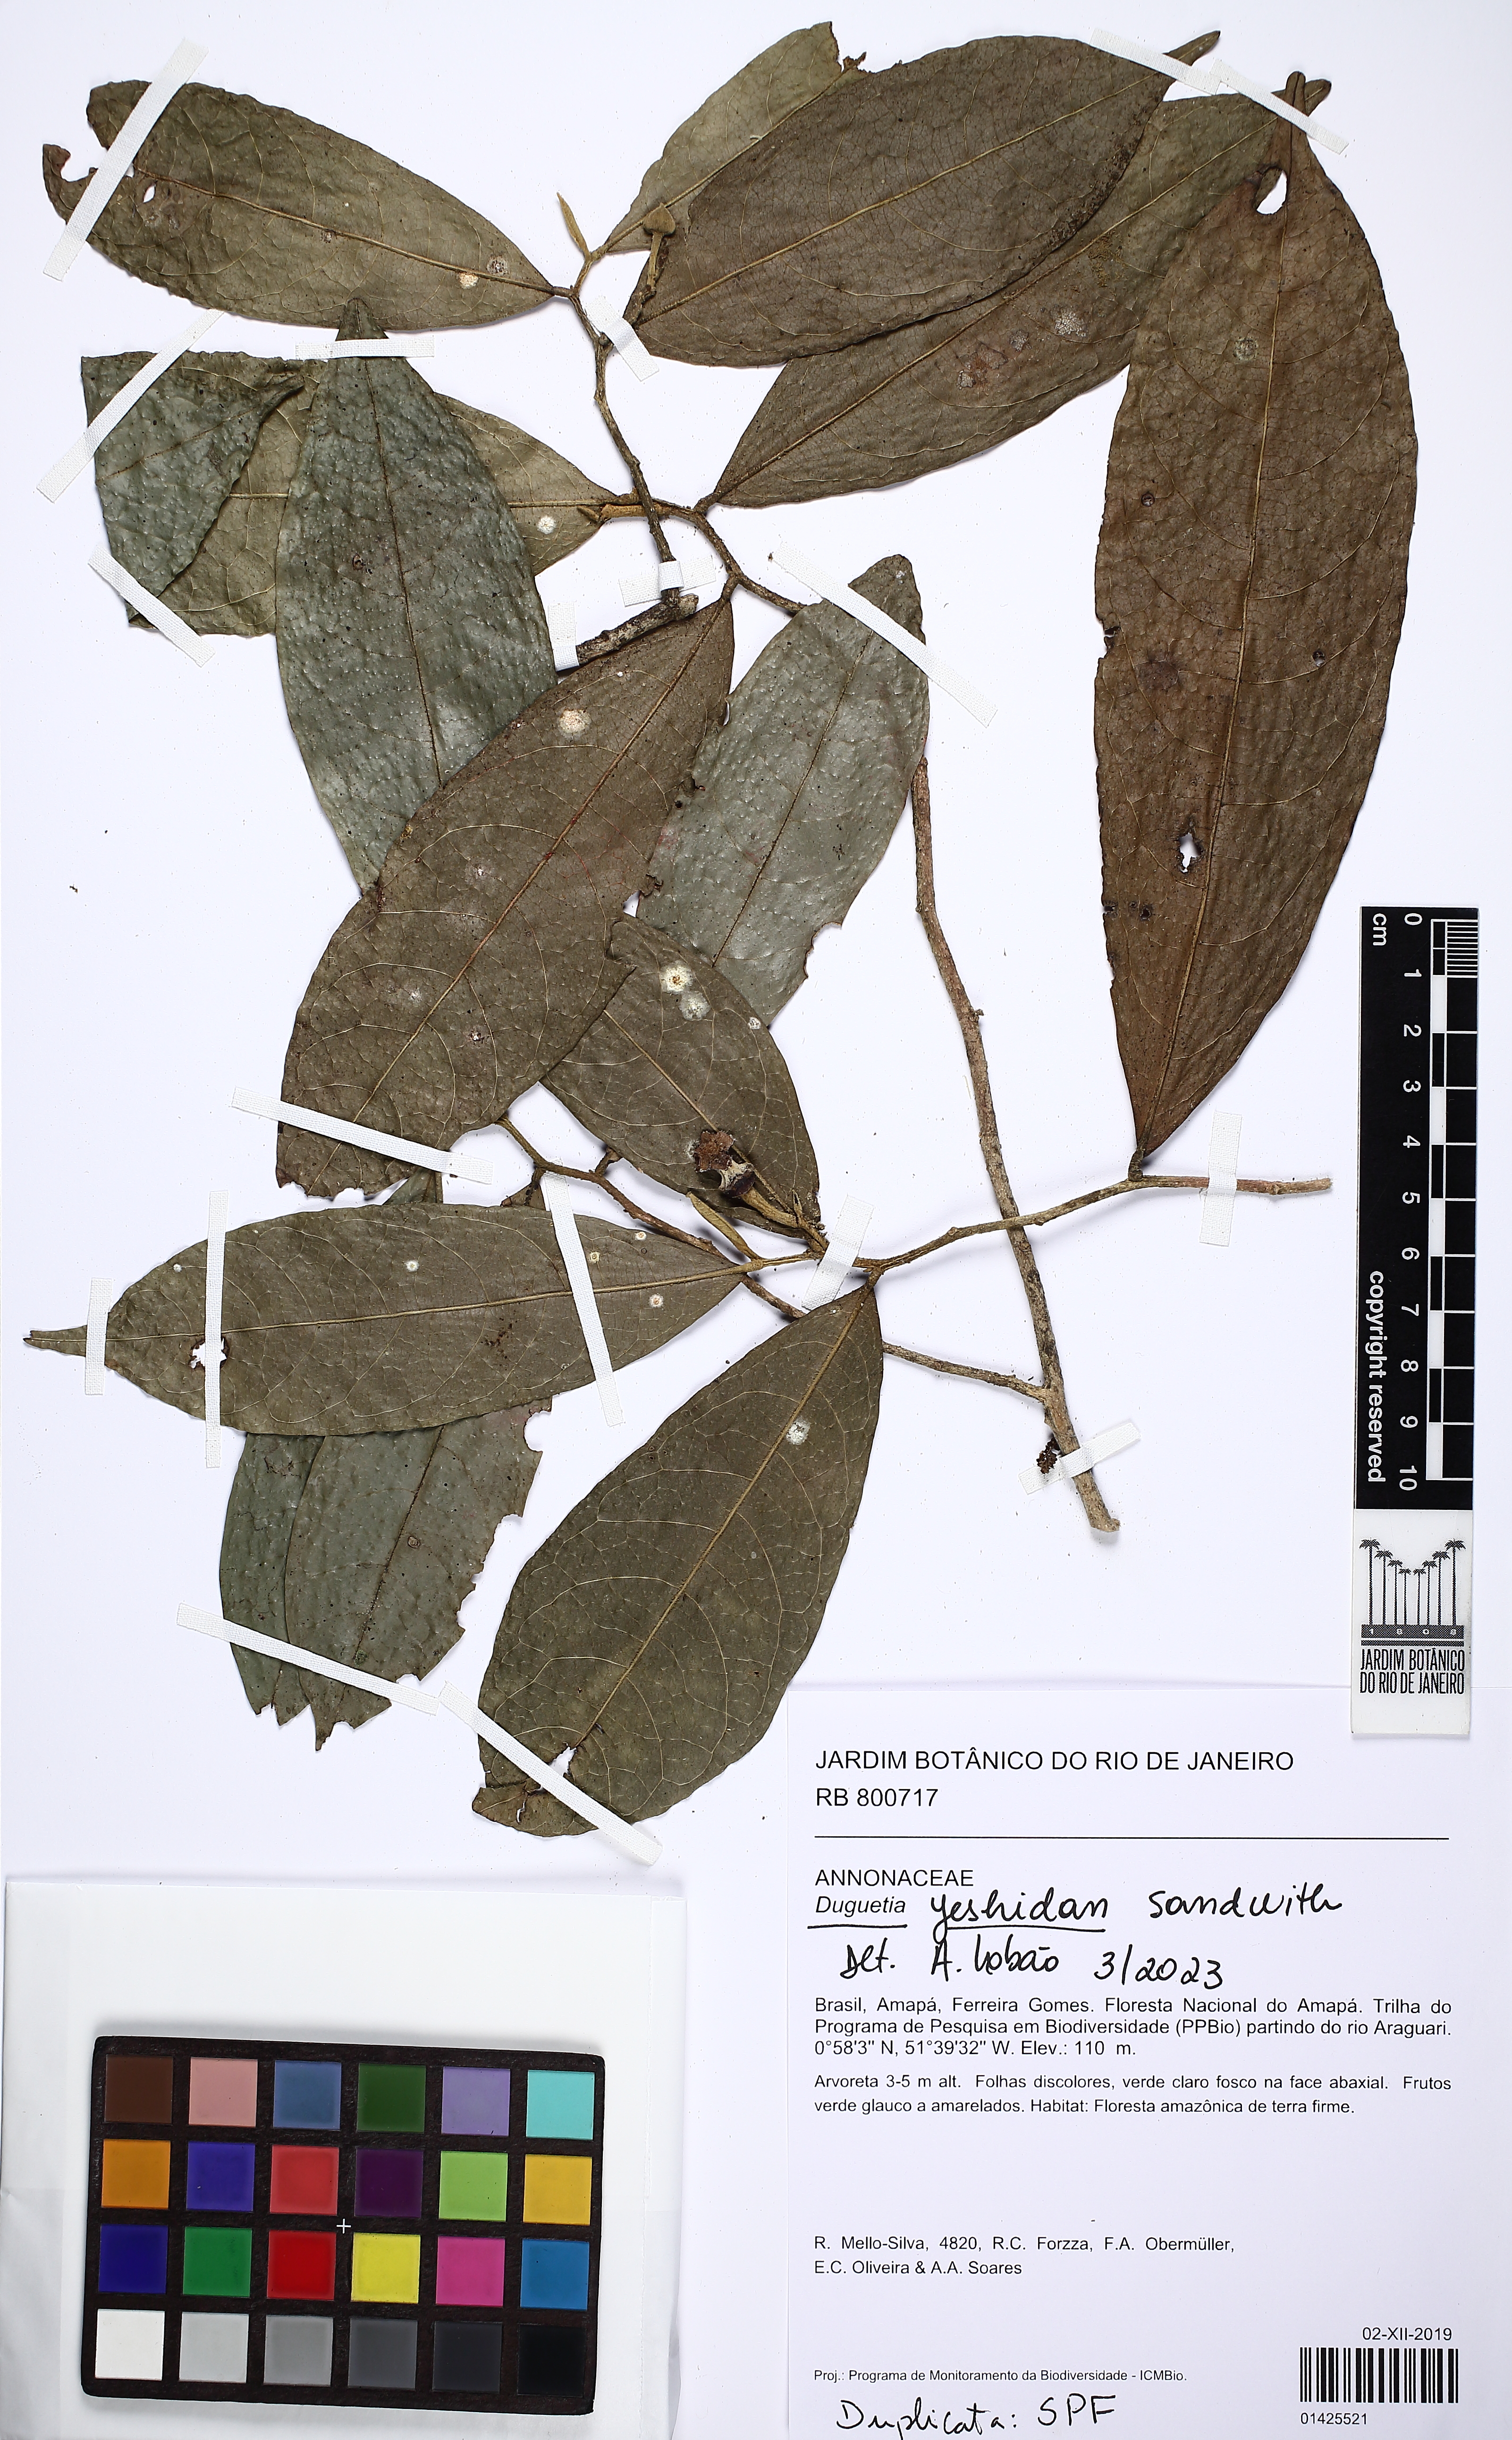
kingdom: Plantae
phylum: Tracheophyta
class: Magnoliopsida
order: Magnoliales
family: Annonaceae
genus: Duguetia
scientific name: Duguetia yeshidan
